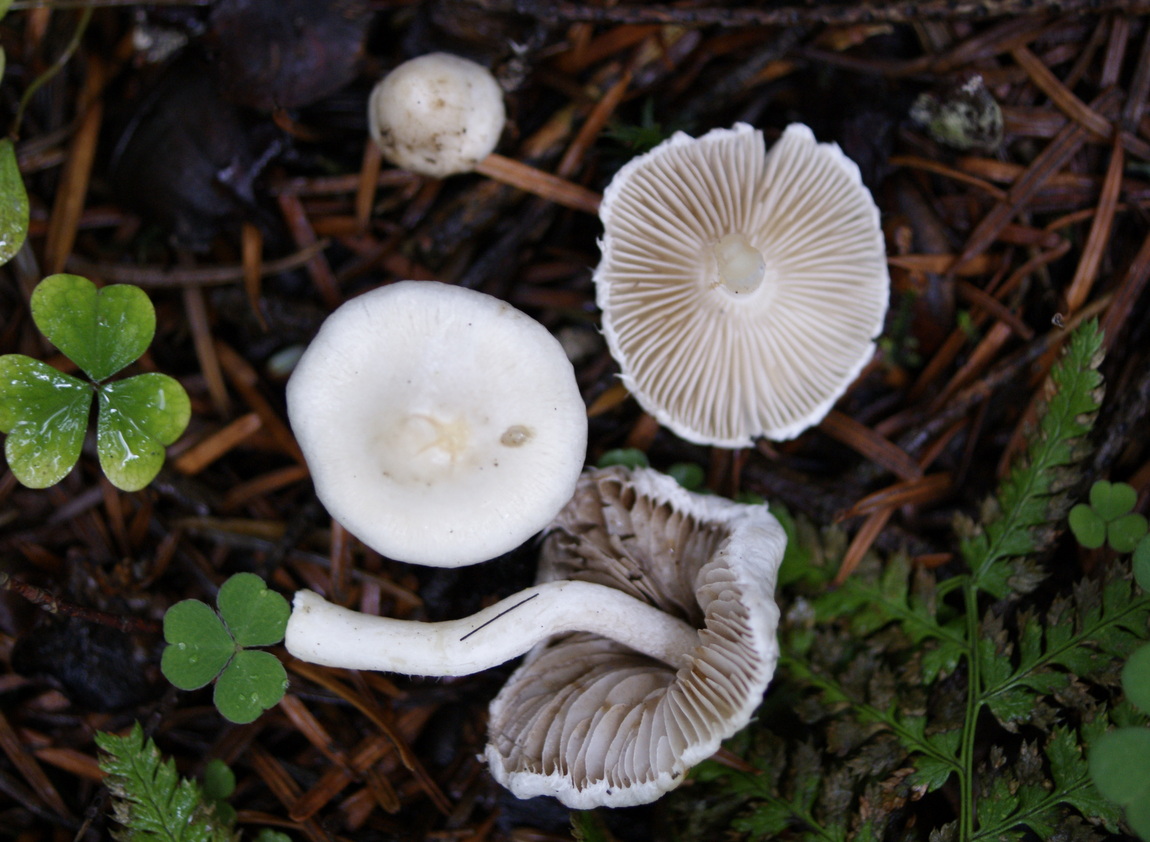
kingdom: Fungi
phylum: Basidiomycota
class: Agaricomycetes
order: Agaricales
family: Inocybaceae
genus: Inocybe
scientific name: Inocybe
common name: almindelig trævlhat
